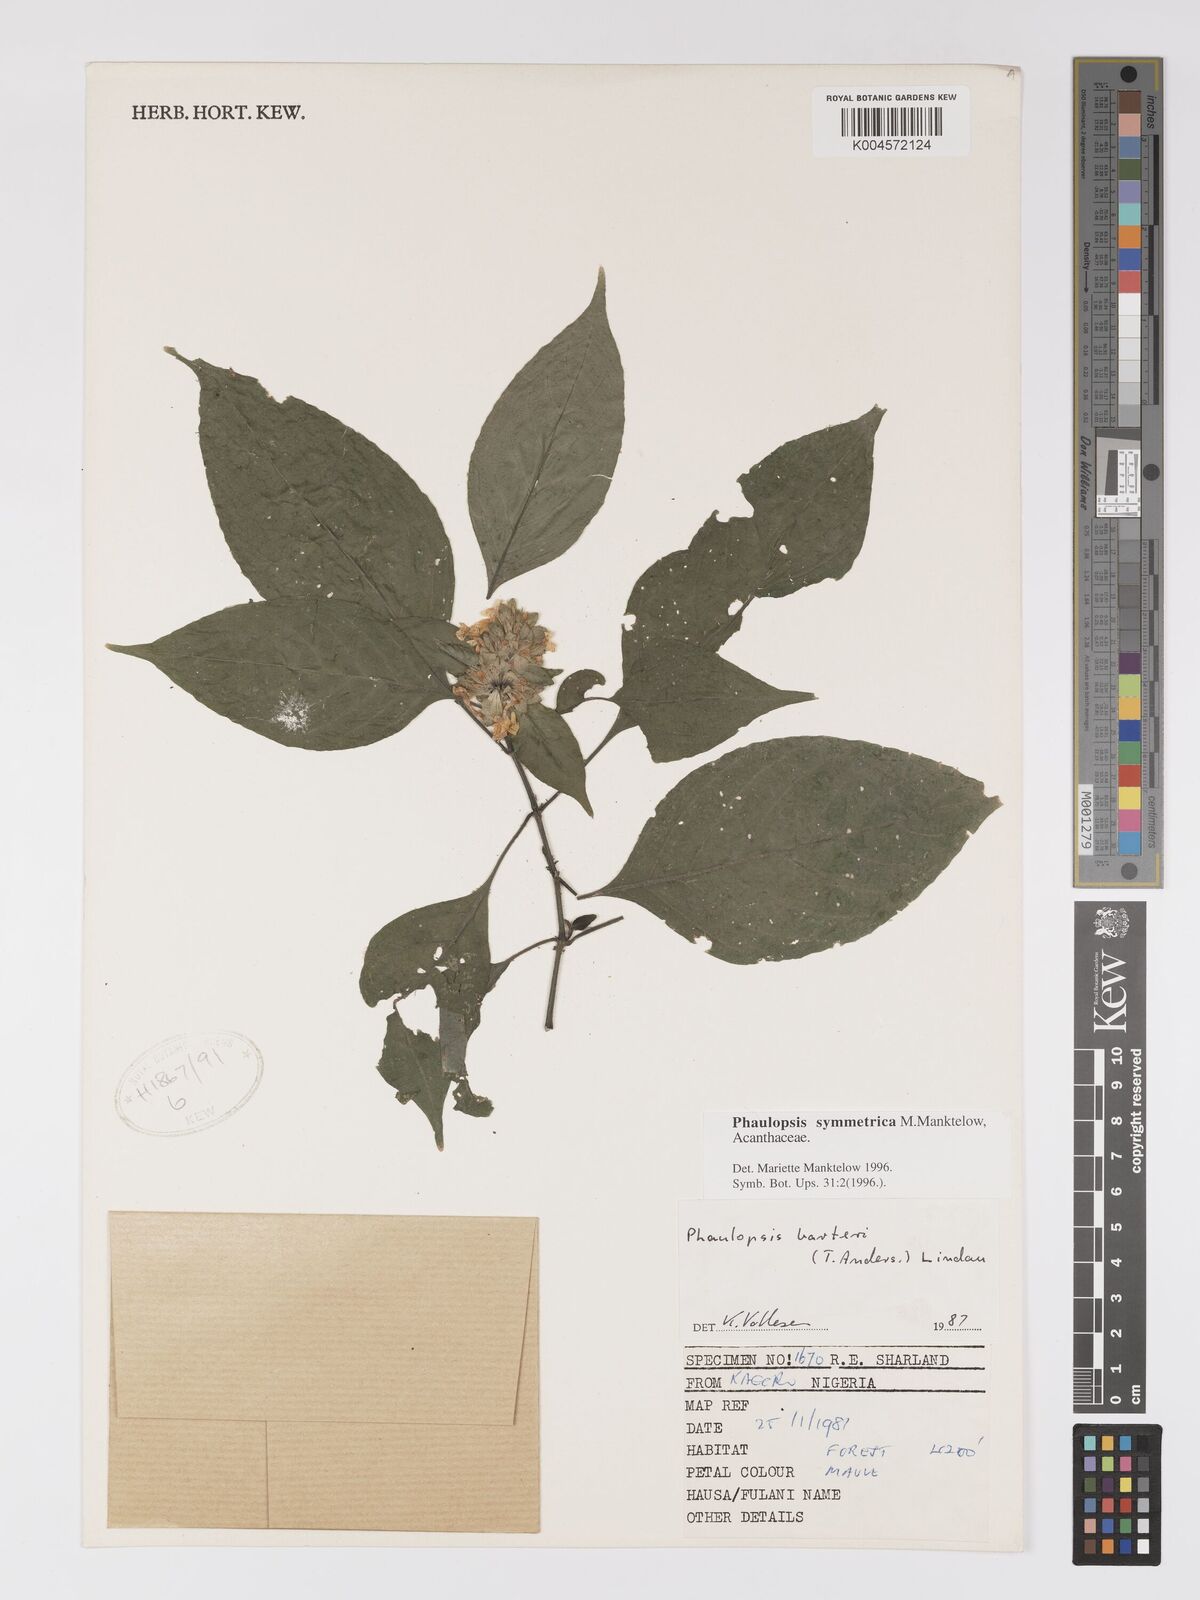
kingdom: Plantae
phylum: Tracheophyta
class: Magnoliopsida
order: Lamiales
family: Acanthaceae
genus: Phaulopsis
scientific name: Phaulopsis symmetrica
